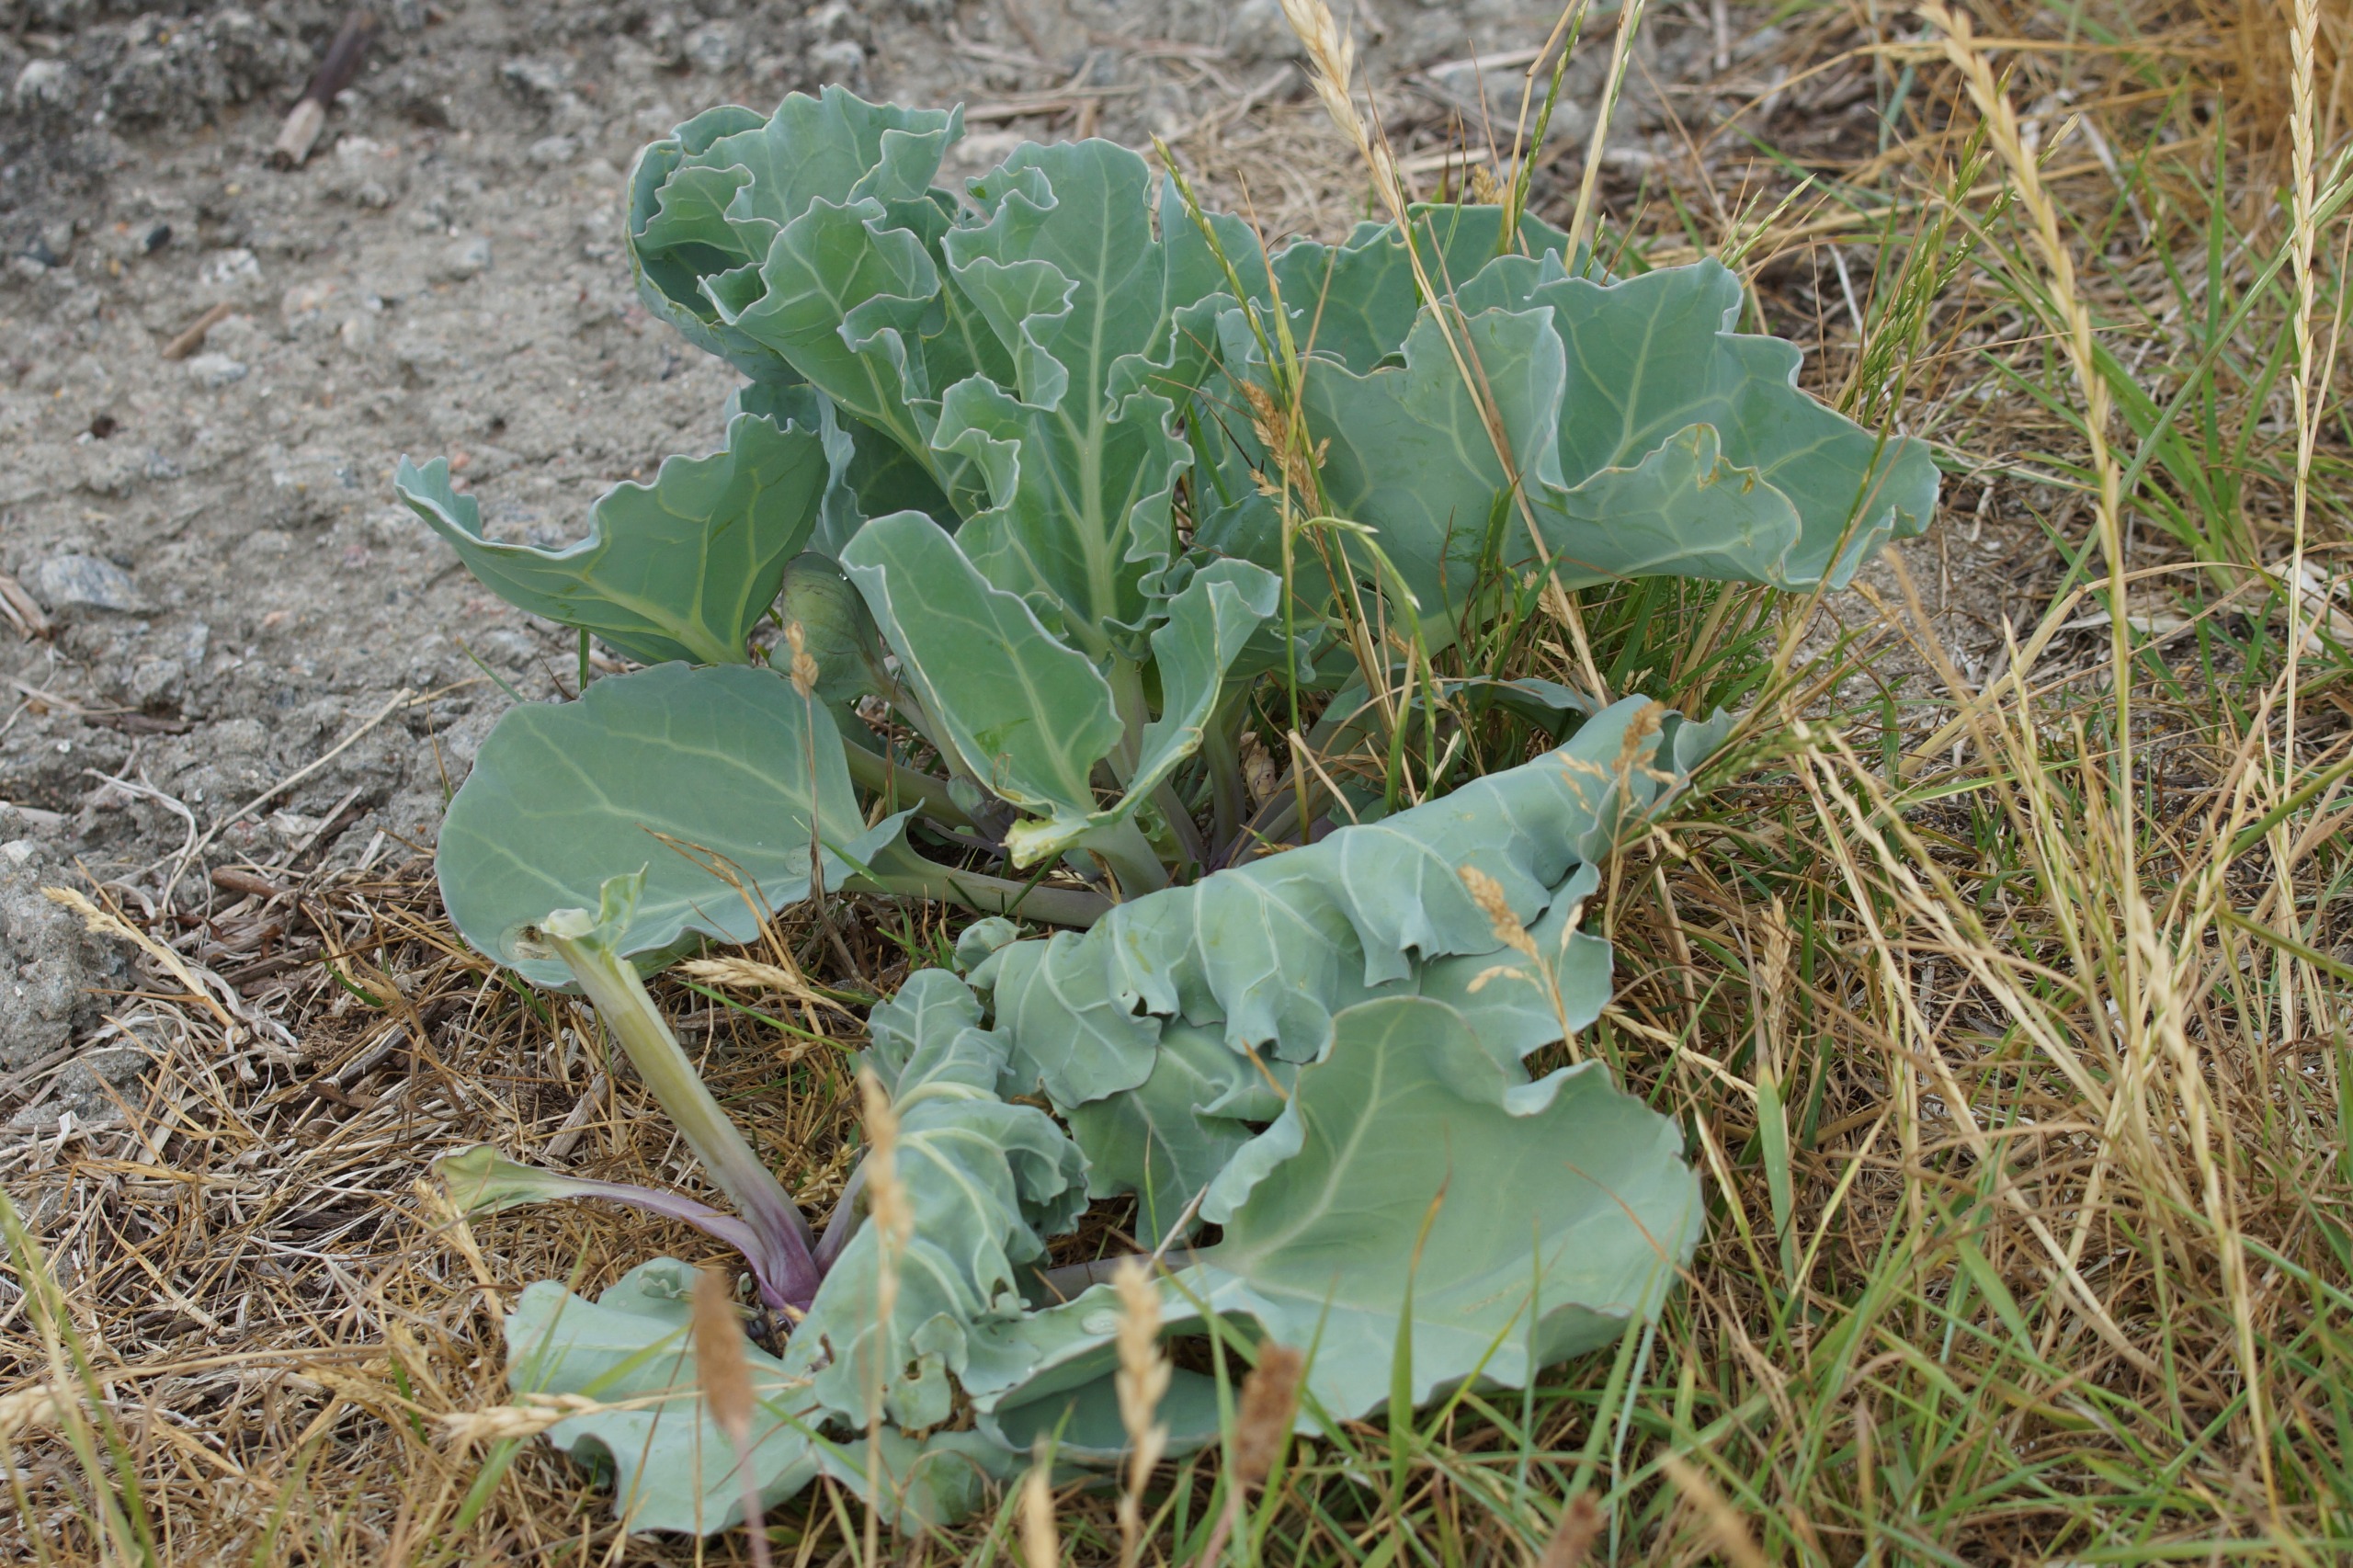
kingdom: Plantae
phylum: Tracheophyta
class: Magnoliopsida
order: Brassicales
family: Brassicaceae
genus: Crambe
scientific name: Crambe maritima
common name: Strandkål
